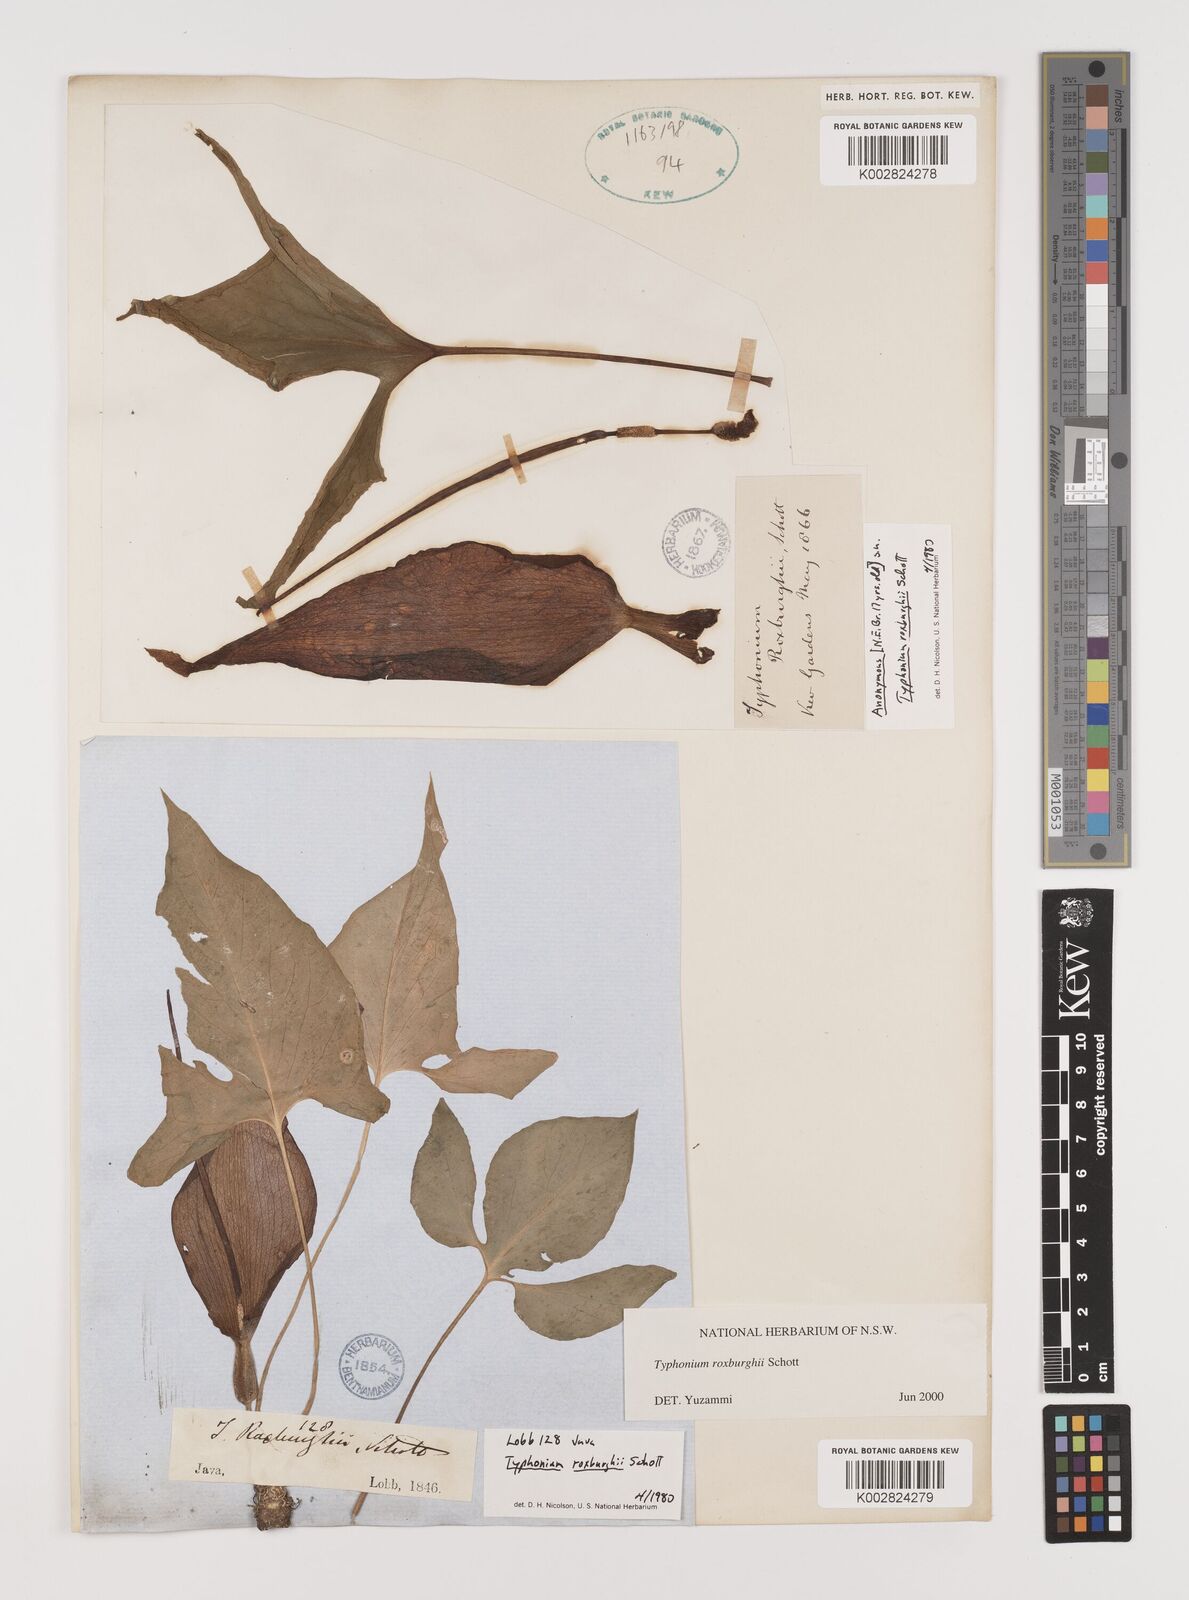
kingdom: Plantae
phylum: Tracheophyta
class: Liliopsida
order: Alismatales
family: Araceae
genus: Typhonium
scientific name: Typhonium roxburghii
